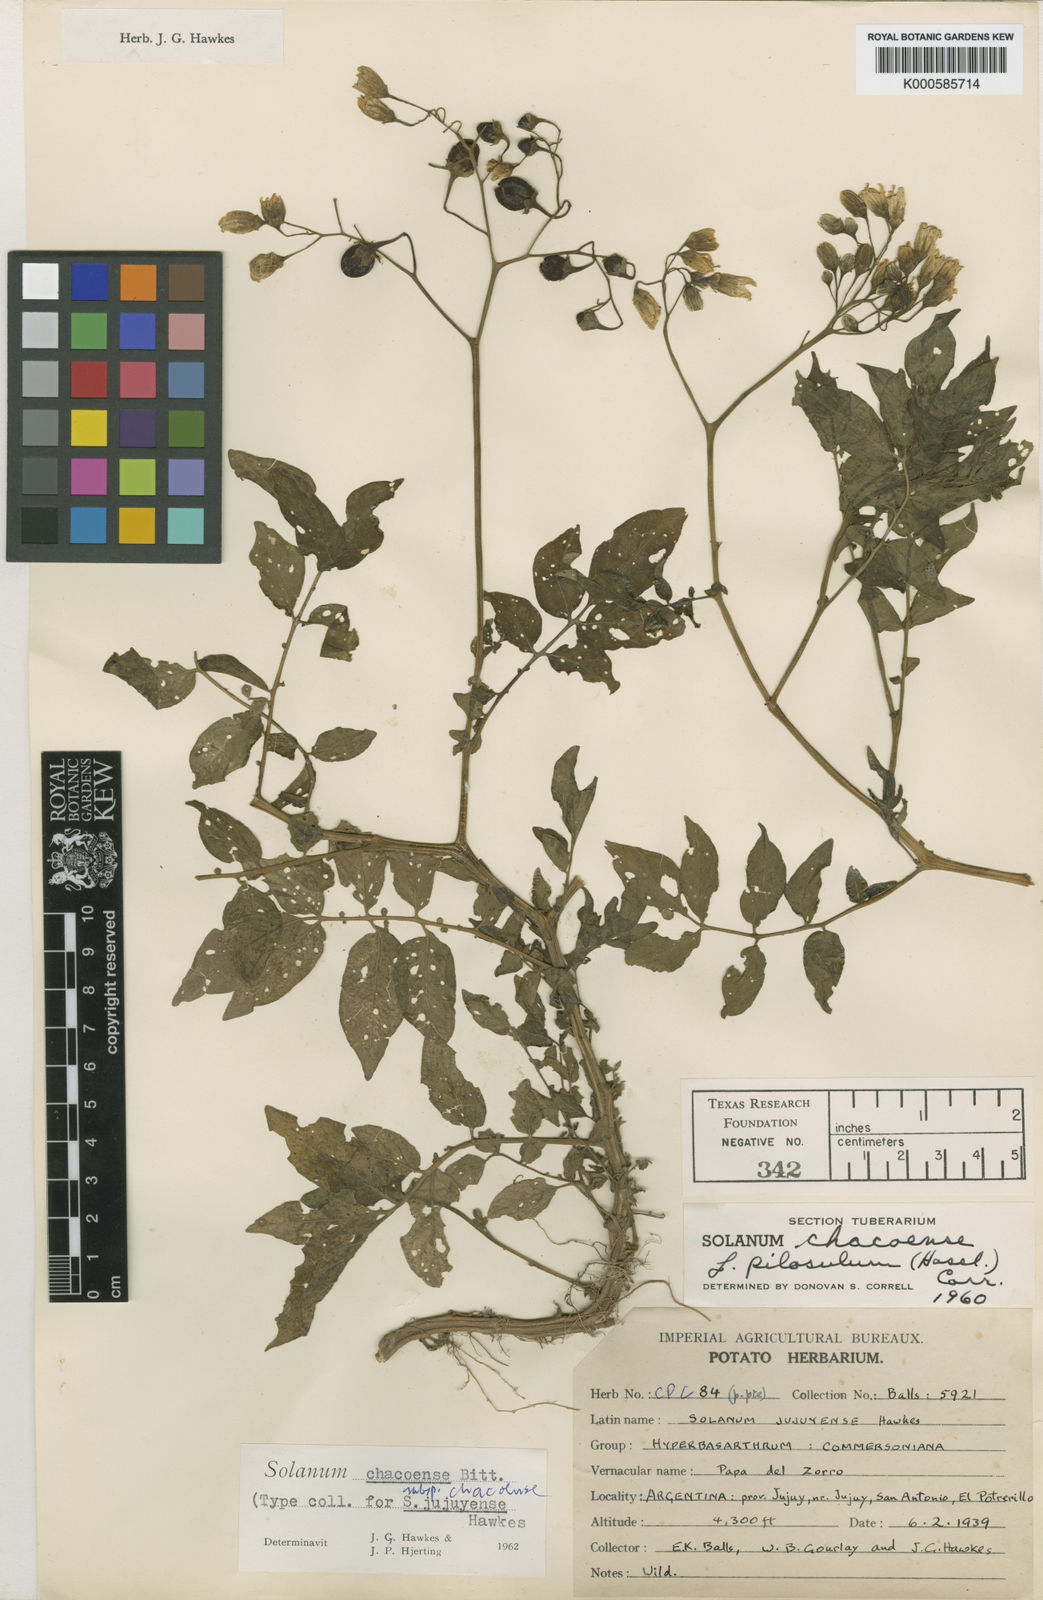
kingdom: Plantae
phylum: Tracheophyta
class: Magnoliopsida
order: Solanales
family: Solanaceae
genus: Solanum
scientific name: Solanum chacoense
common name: Chaco potato
